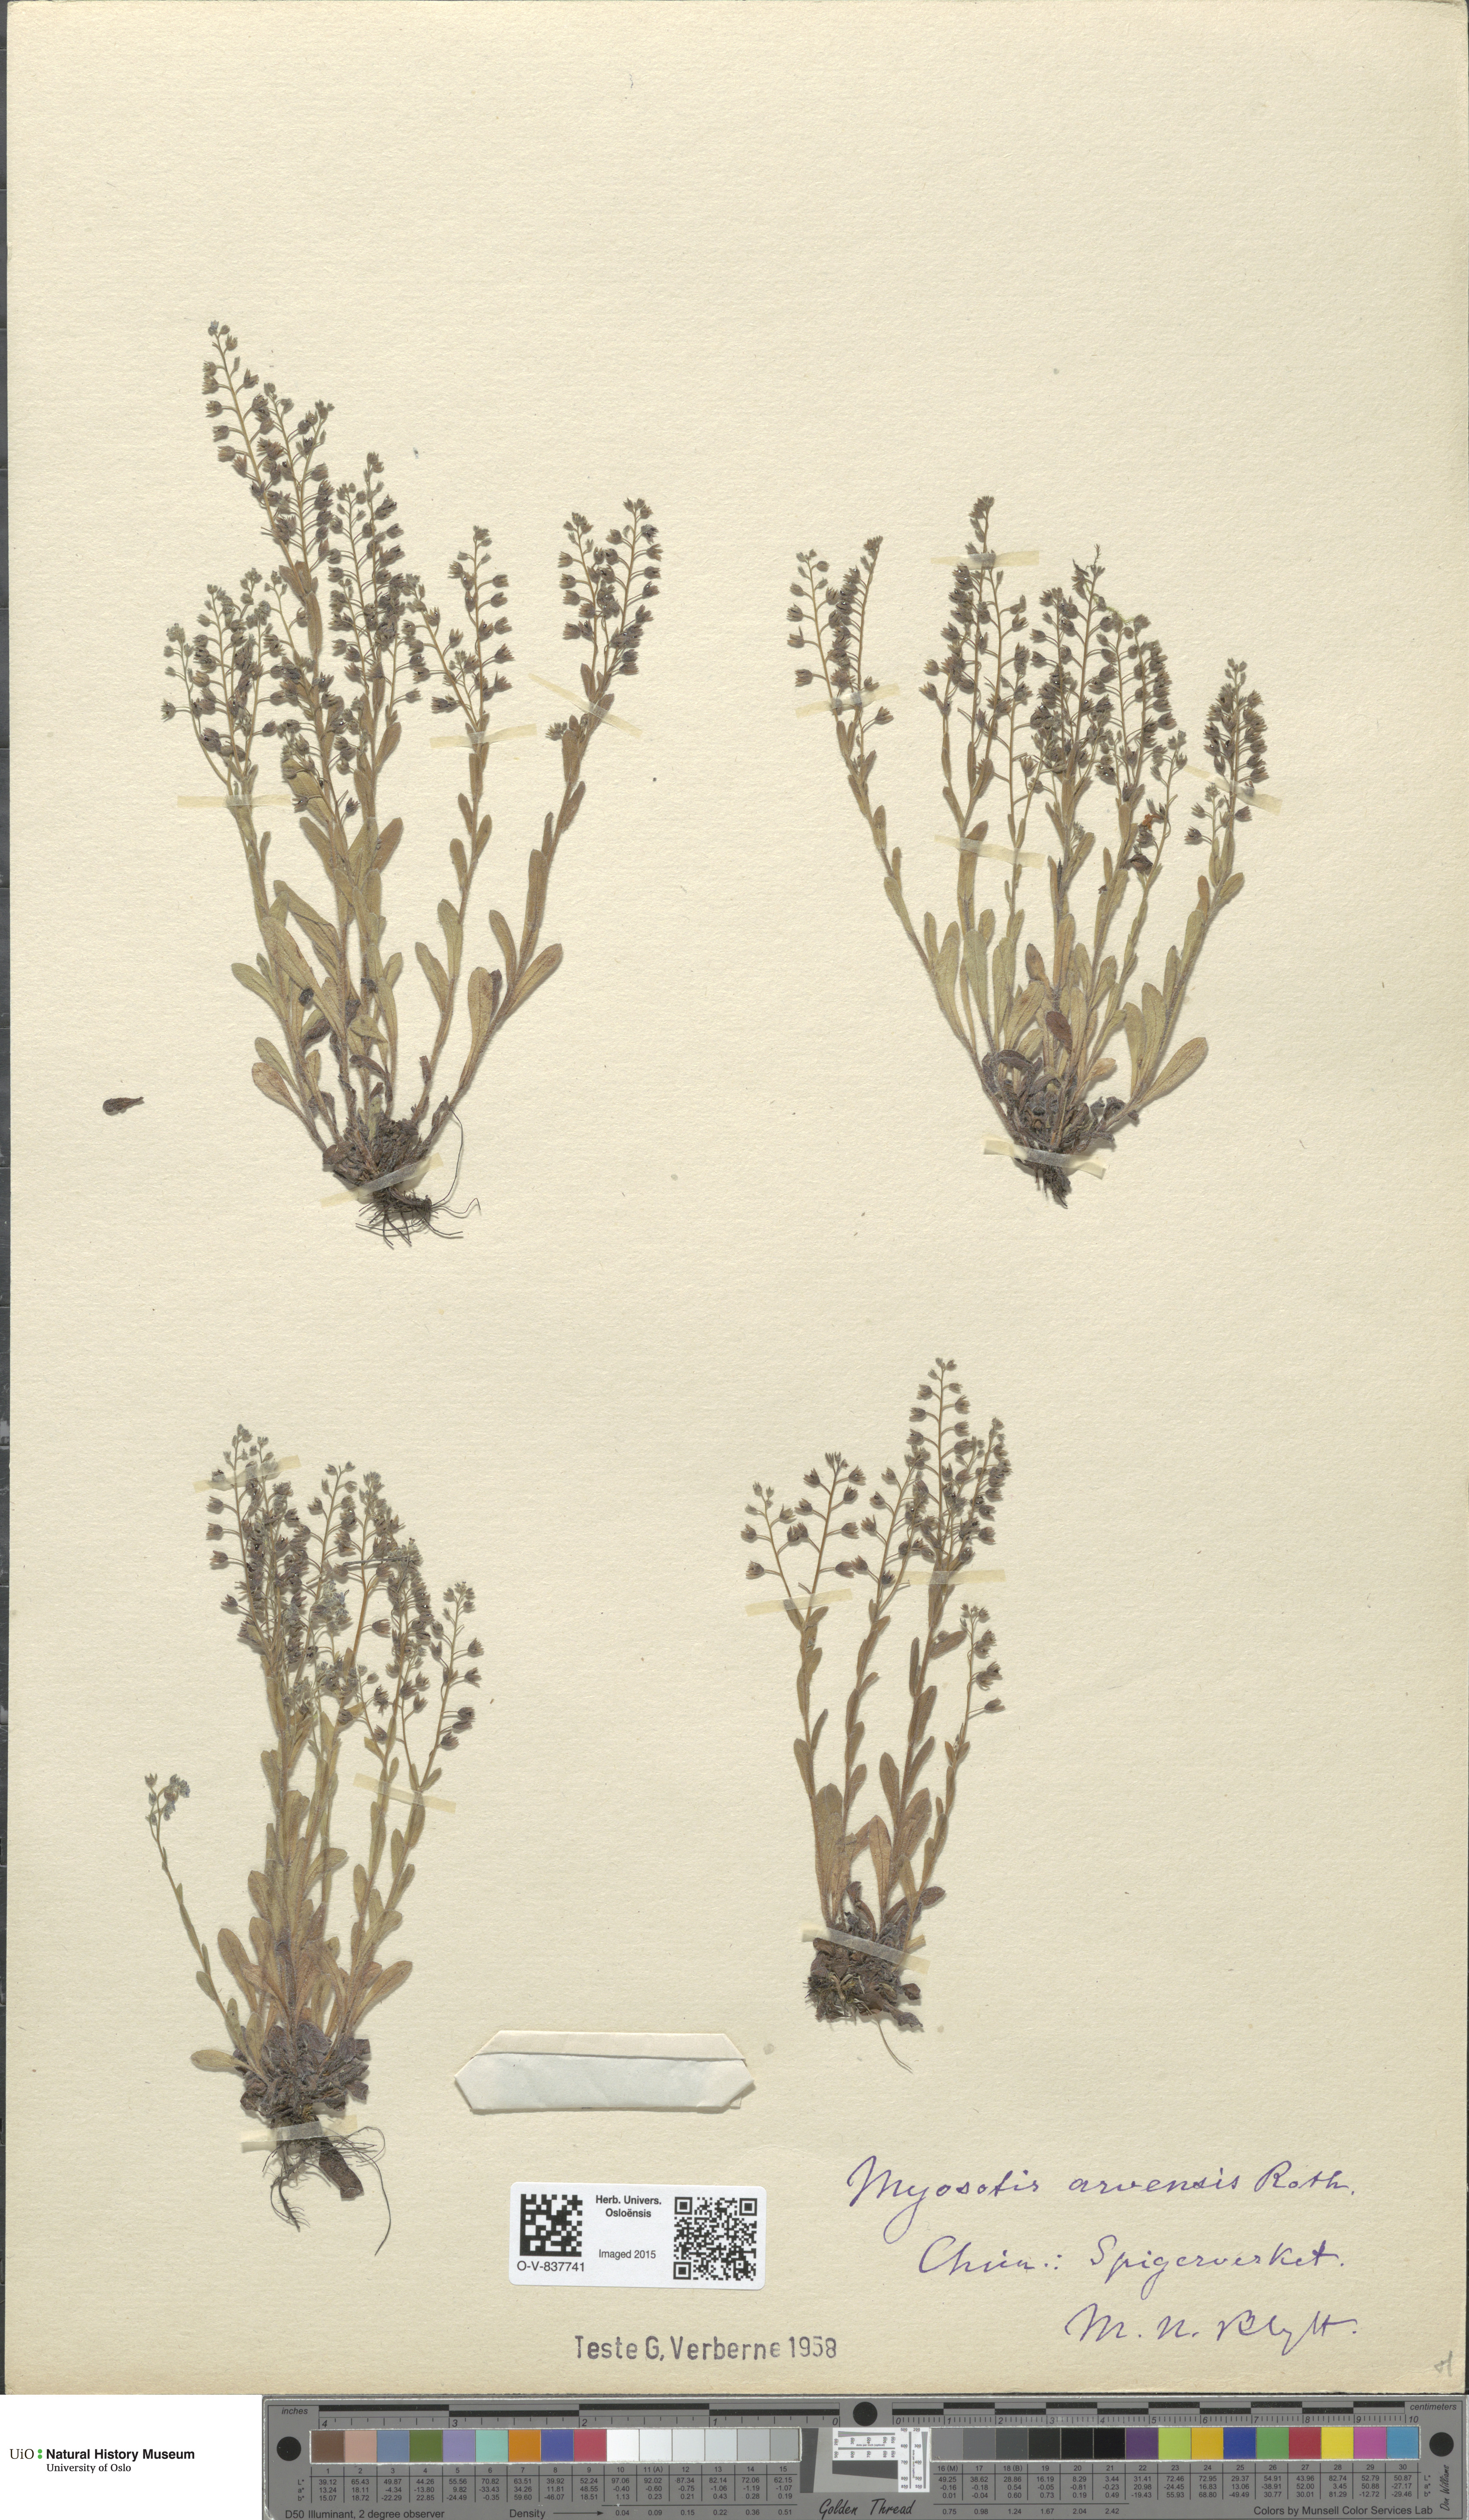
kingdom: Plantae
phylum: Tracheophyta
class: Magnoliopsida
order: Boraginales
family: Boraginaceae
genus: Myosotis
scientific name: Myosotis arvensis
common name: Field forget-me-not
